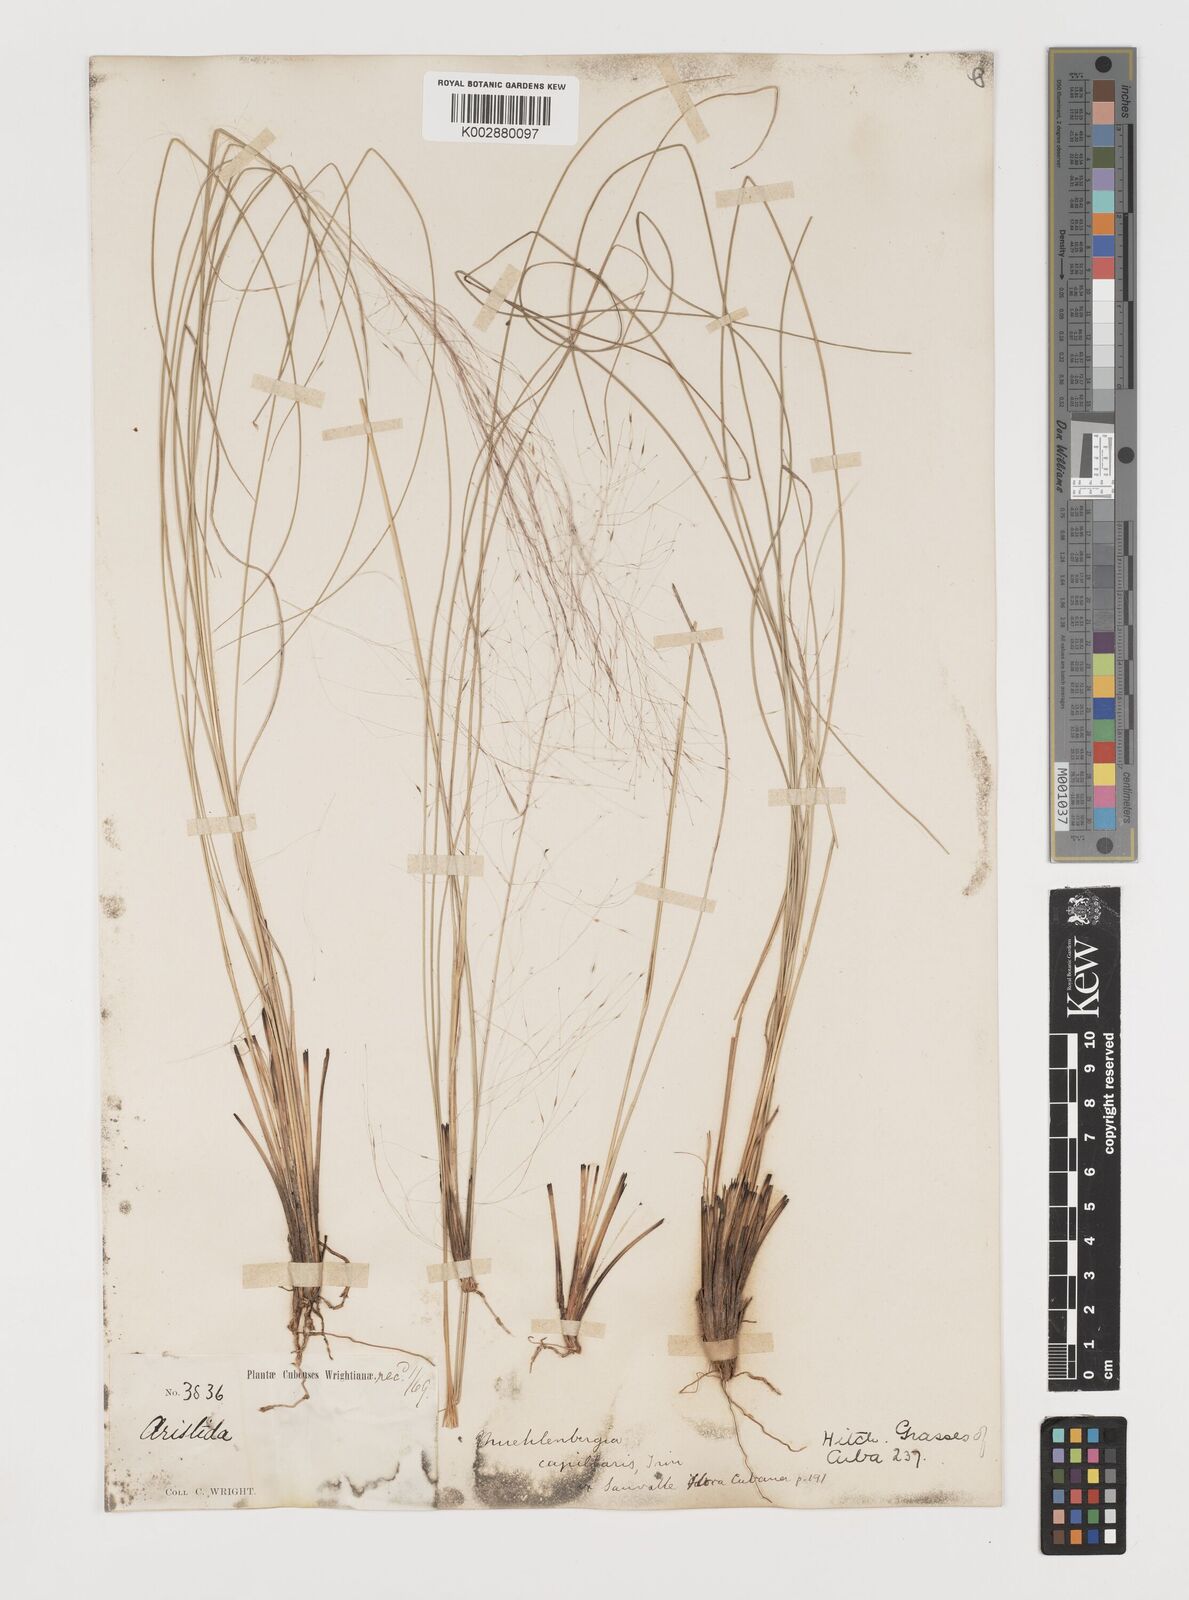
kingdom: Plantae
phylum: Tracheophyta
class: Liliopsida
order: Poales
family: Poaceae
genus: Muhlenbergia
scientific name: Muhlenbergia capillaris
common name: Purple grass
